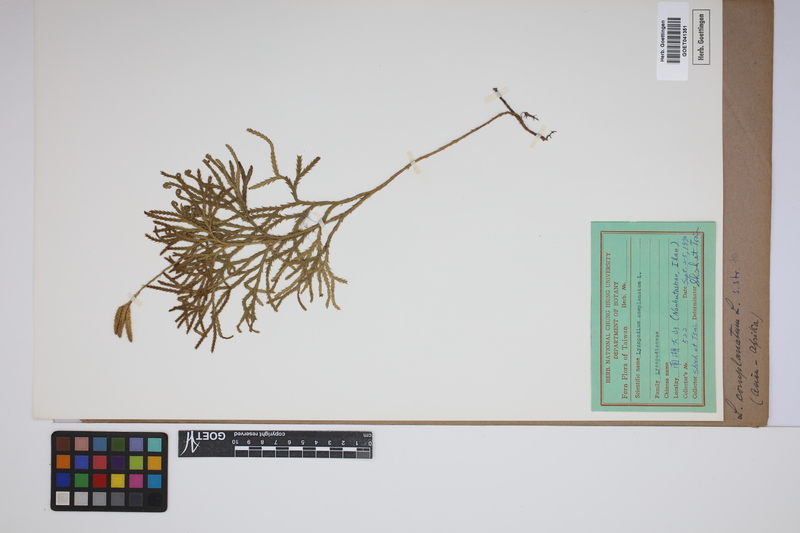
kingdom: Plantae
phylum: Tracheophyta
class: Lycopodiopsida
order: Lycopodiales
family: Lycopodiaceae
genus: Diphasiastrum
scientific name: Diphasiastrum complanatum
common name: Northern running-pine
